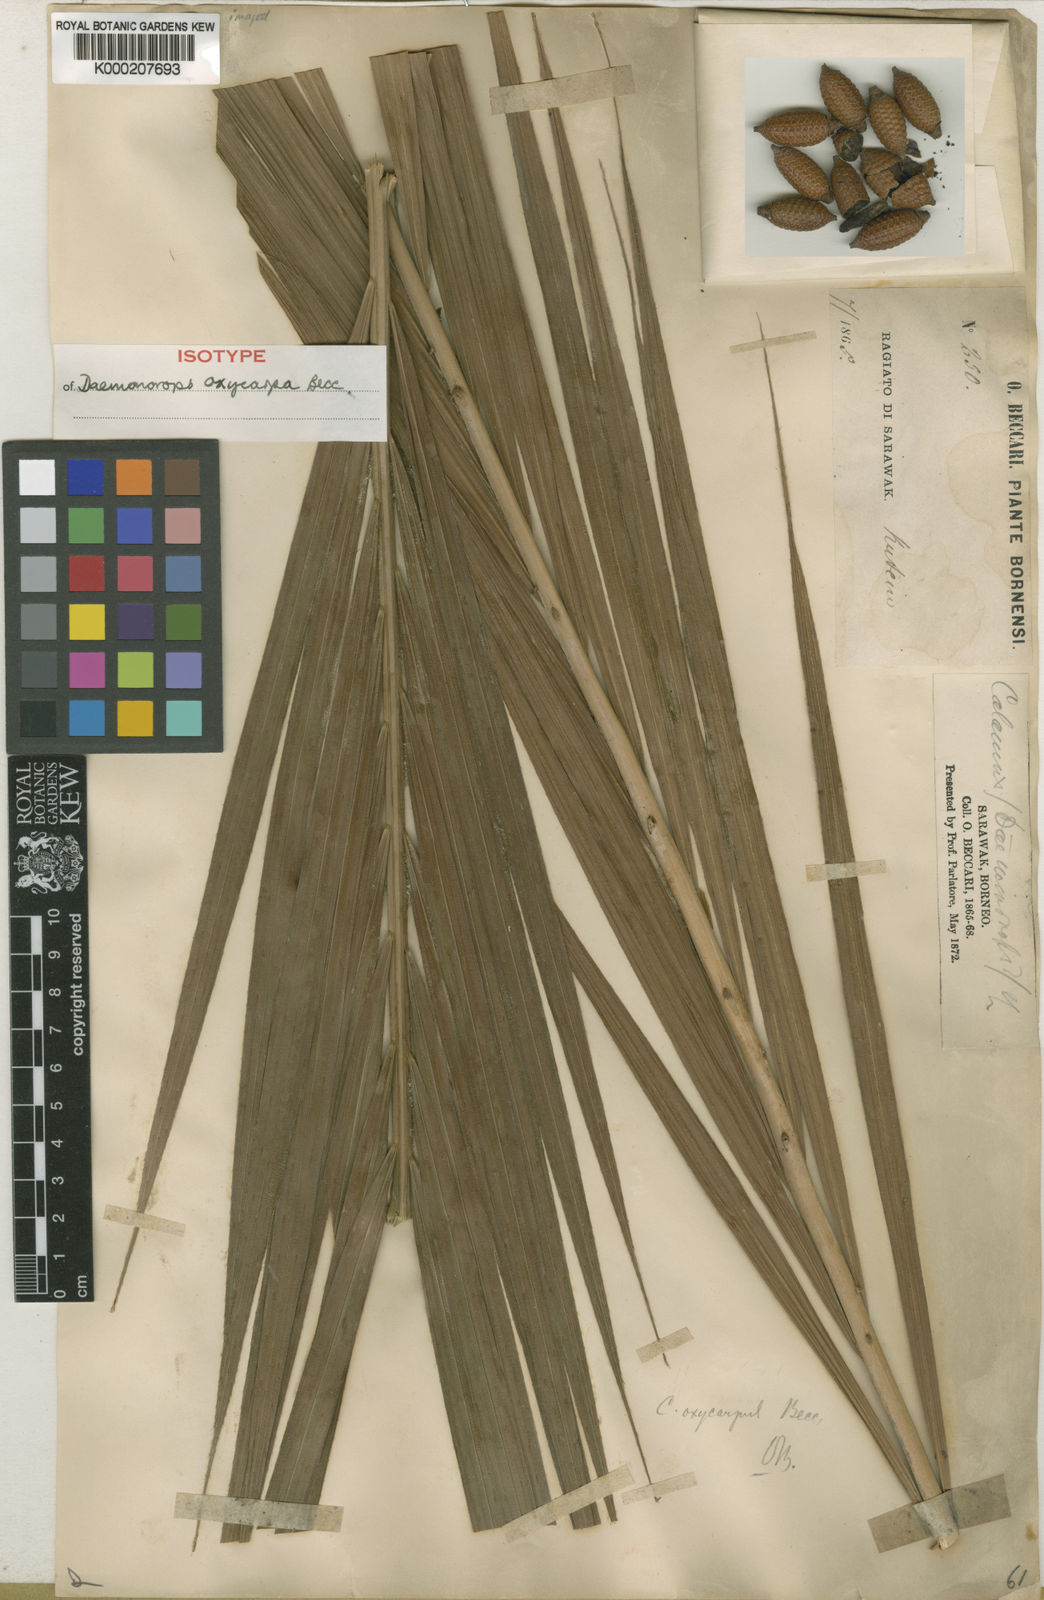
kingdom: Plantae
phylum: Tracheophyta
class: Liliopsida
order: Arecales
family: Arecaceae
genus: Calamus
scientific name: Calamus oxycoccus
